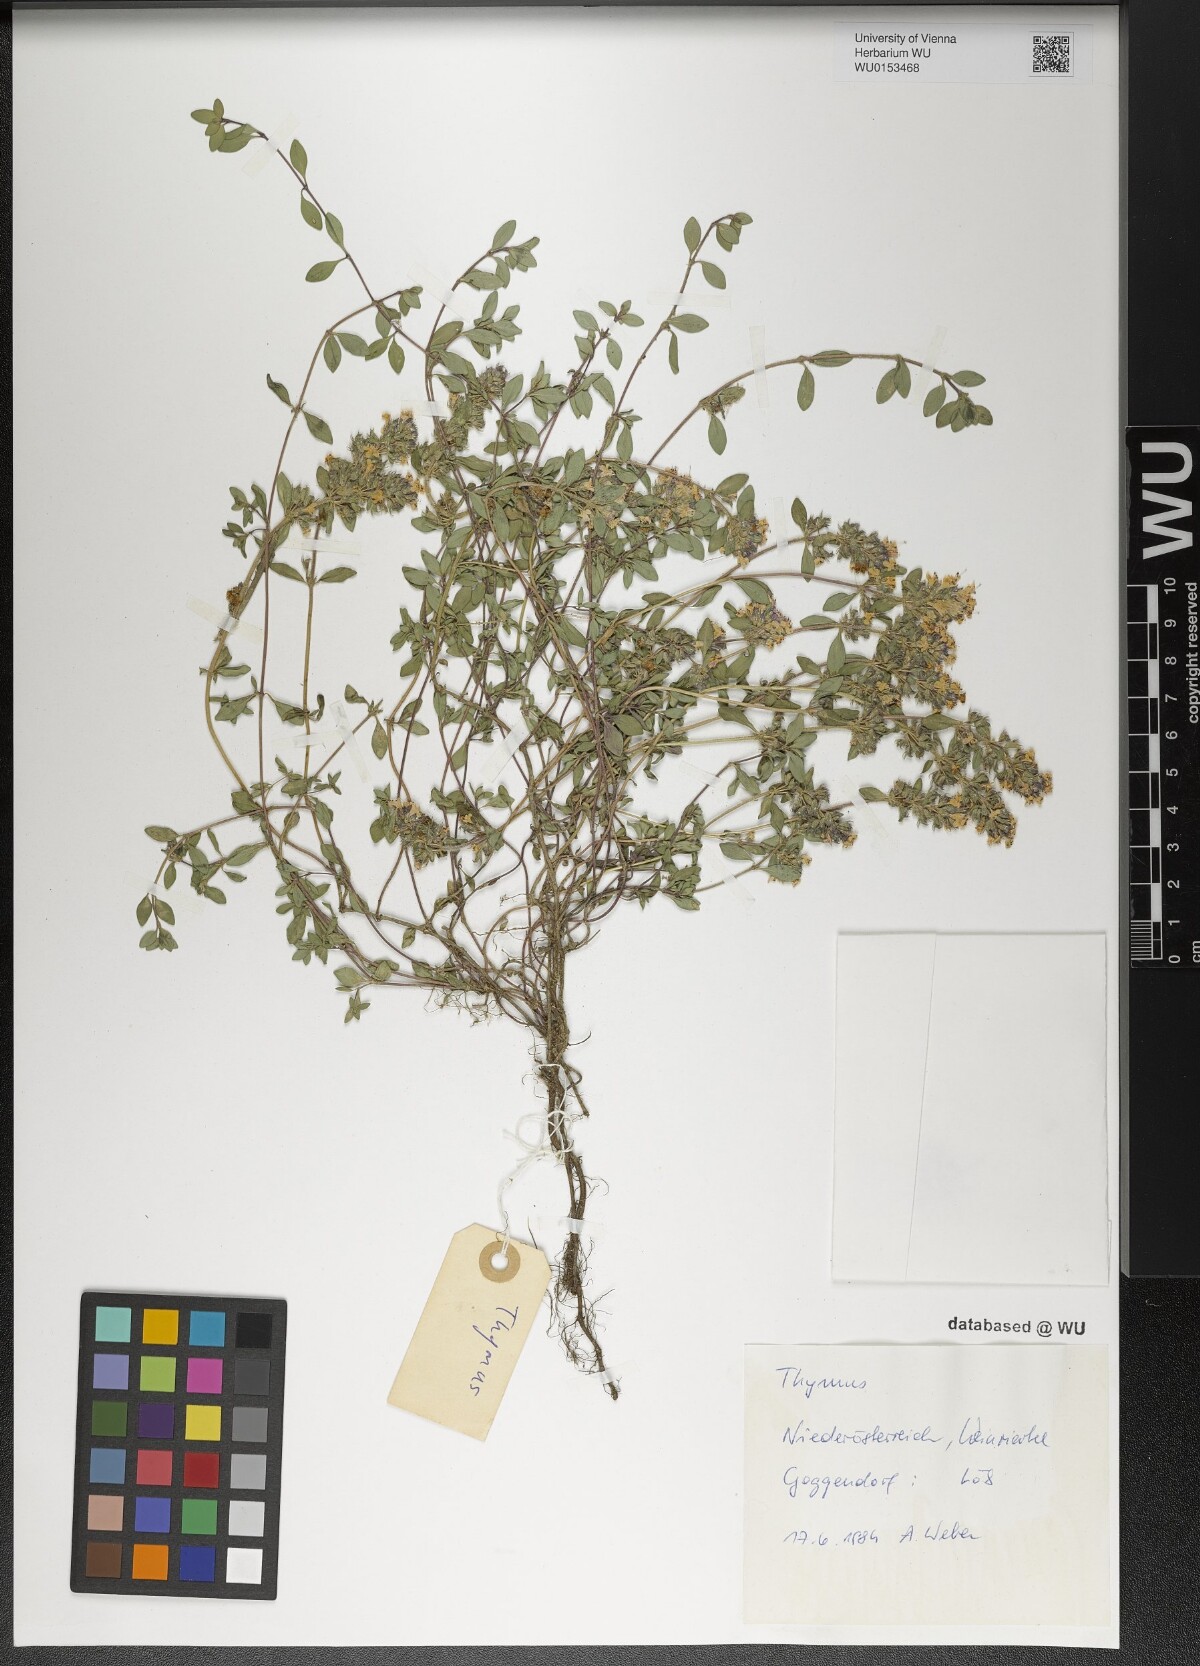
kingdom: Plantae
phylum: Tracheophyta
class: Magnoliopsida
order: Lamiales
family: Lamiaceae
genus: Thymus
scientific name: Thymus
